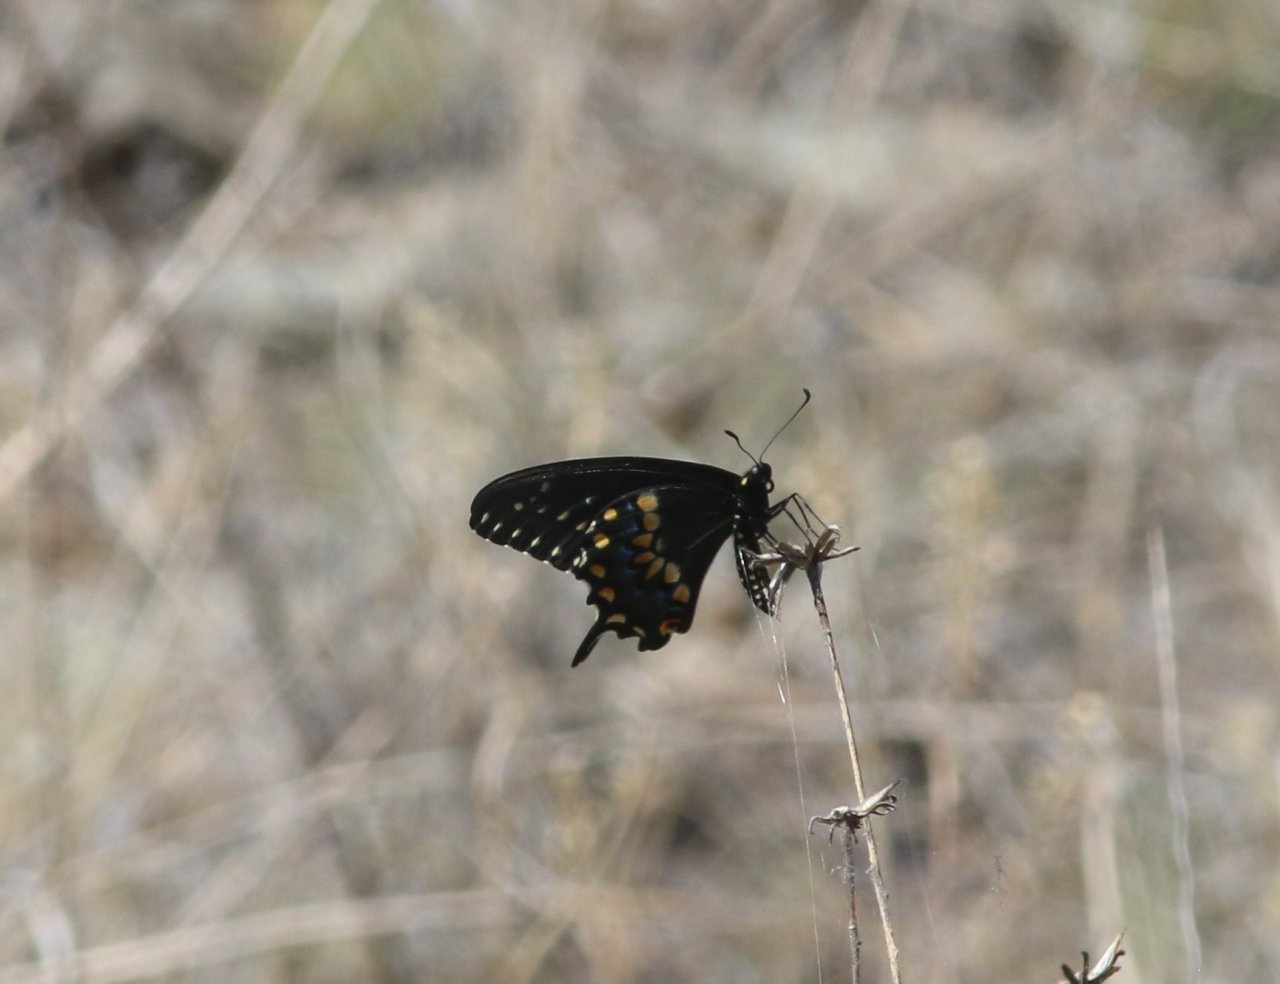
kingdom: Animalia
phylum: Arthropoda
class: Insecta
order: Lepidoptera
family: Papilionidae
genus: Papilio
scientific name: Papilio polyxenes
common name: Black Swallowtail
